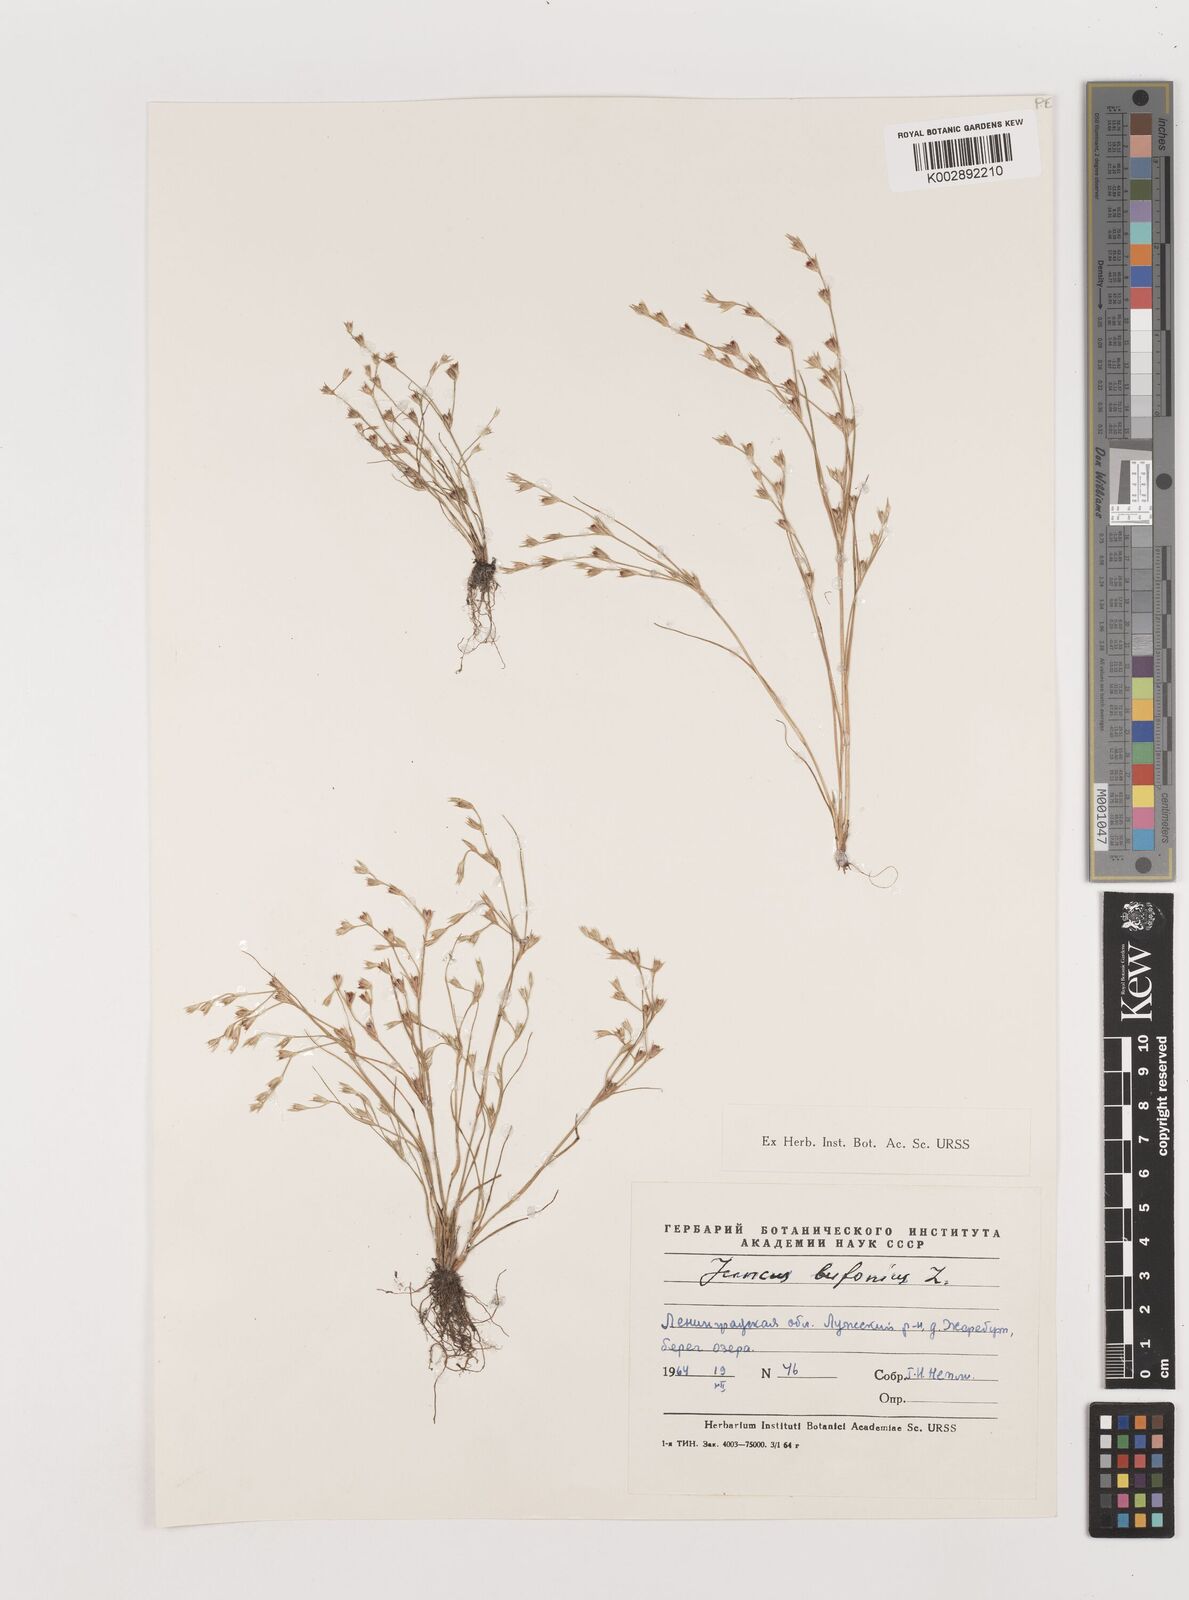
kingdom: Plantae
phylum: Tracheophyta
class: Liliopsida
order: Poales
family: Juncaceae
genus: Juncus
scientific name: Juncus bufonius
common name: Toad rush
